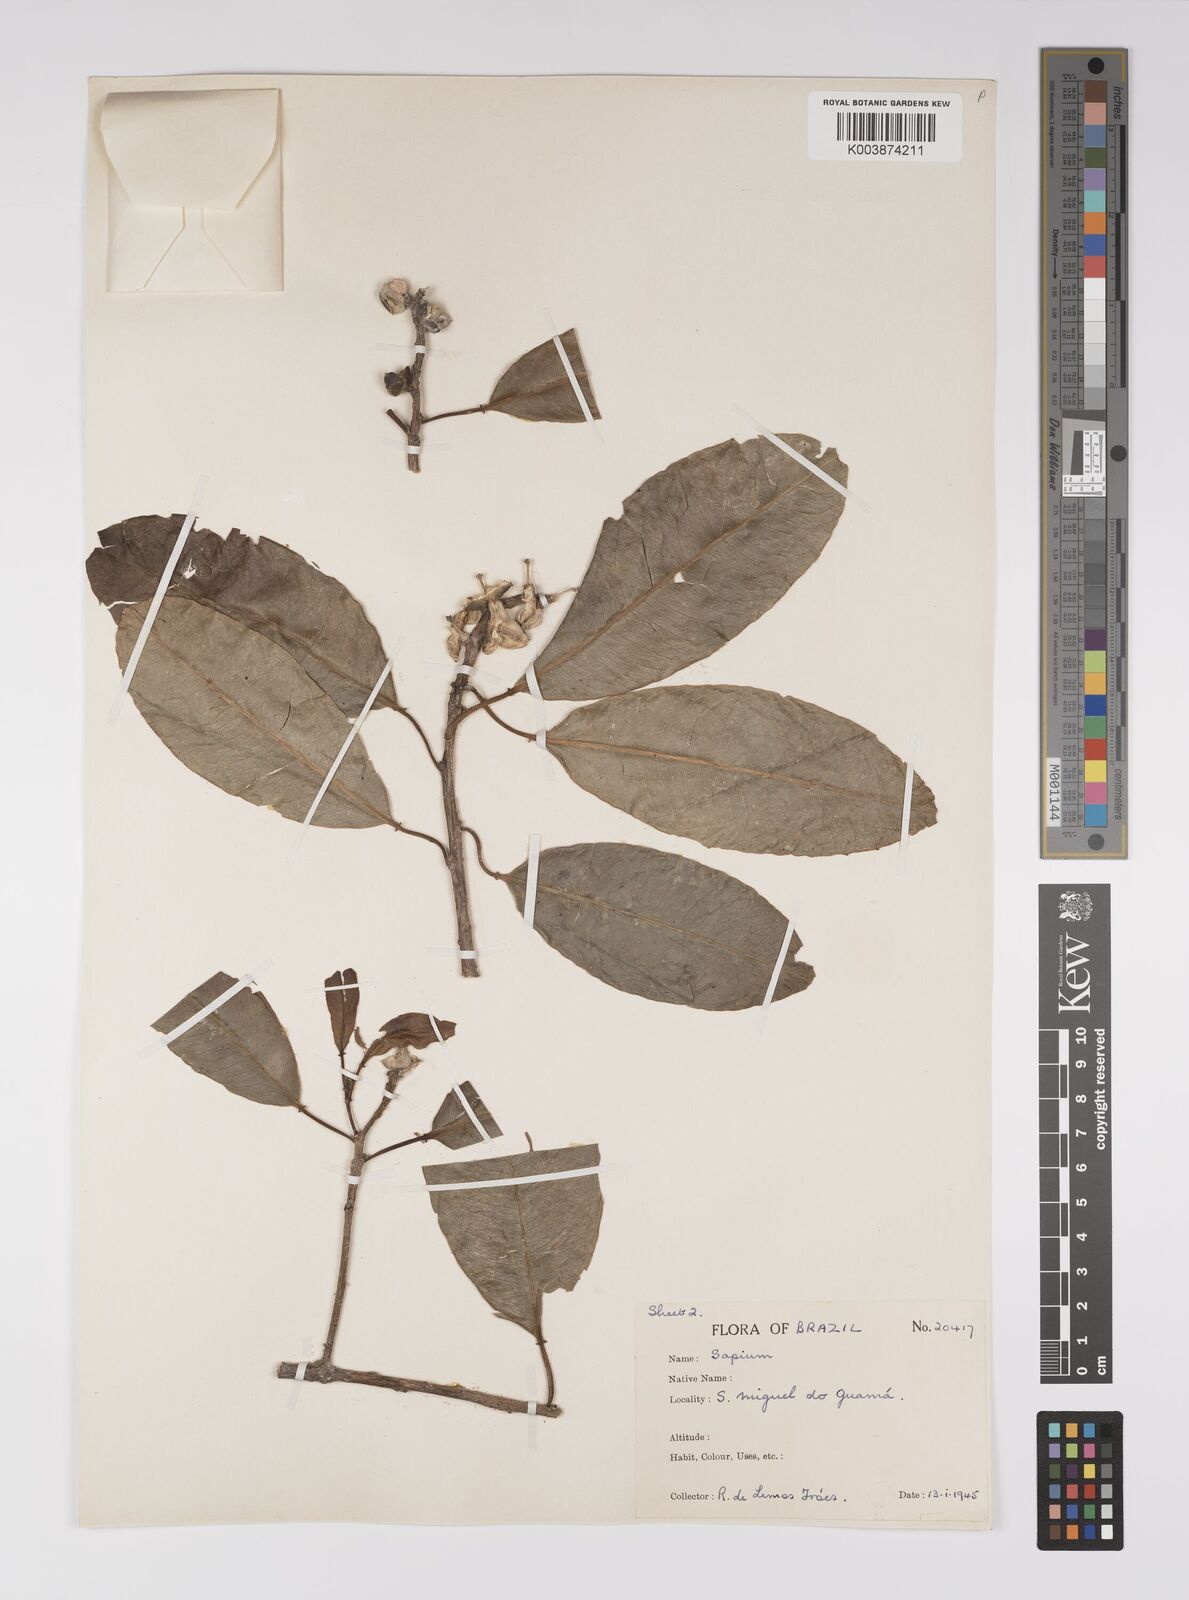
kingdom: Plantae
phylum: Tracheophyta
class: Magnoliopsida
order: Malpighiales
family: Euphorbiaceae
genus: Sapium
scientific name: Sapium
